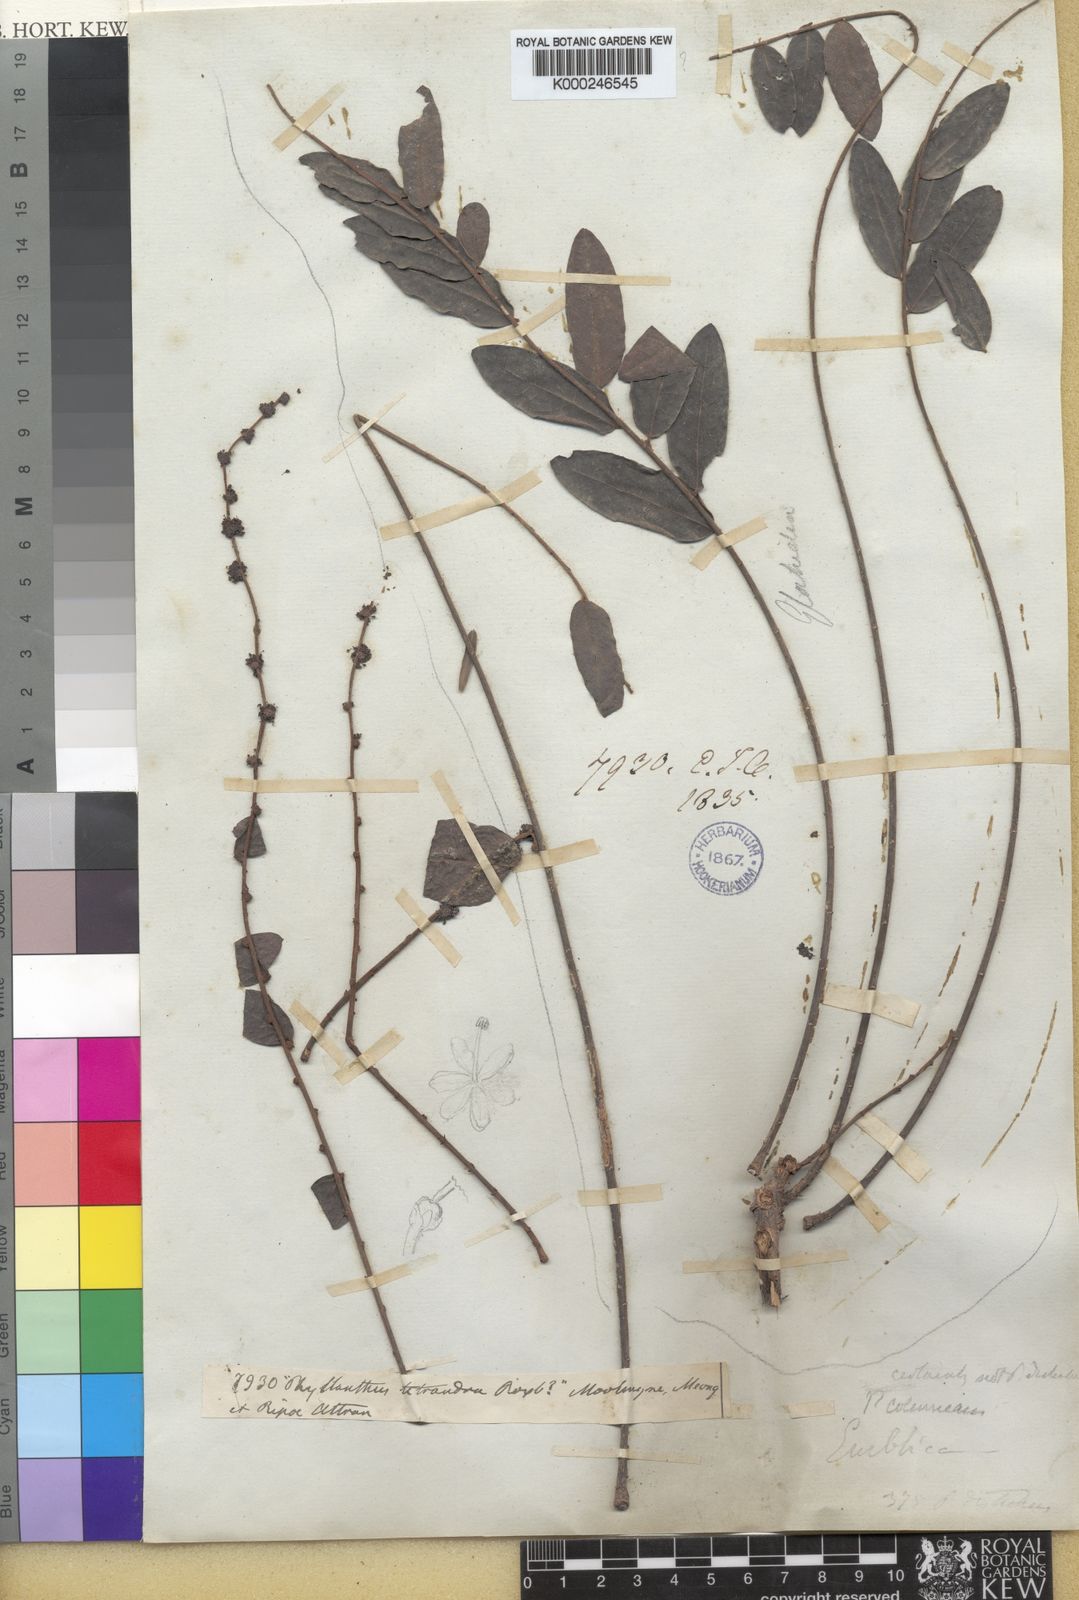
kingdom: Plantae
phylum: Tracheophyta
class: Magnoliopsida
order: Malpighiales
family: Phyllanthaceae
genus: Phyllanthus
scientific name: Phyllanthus
